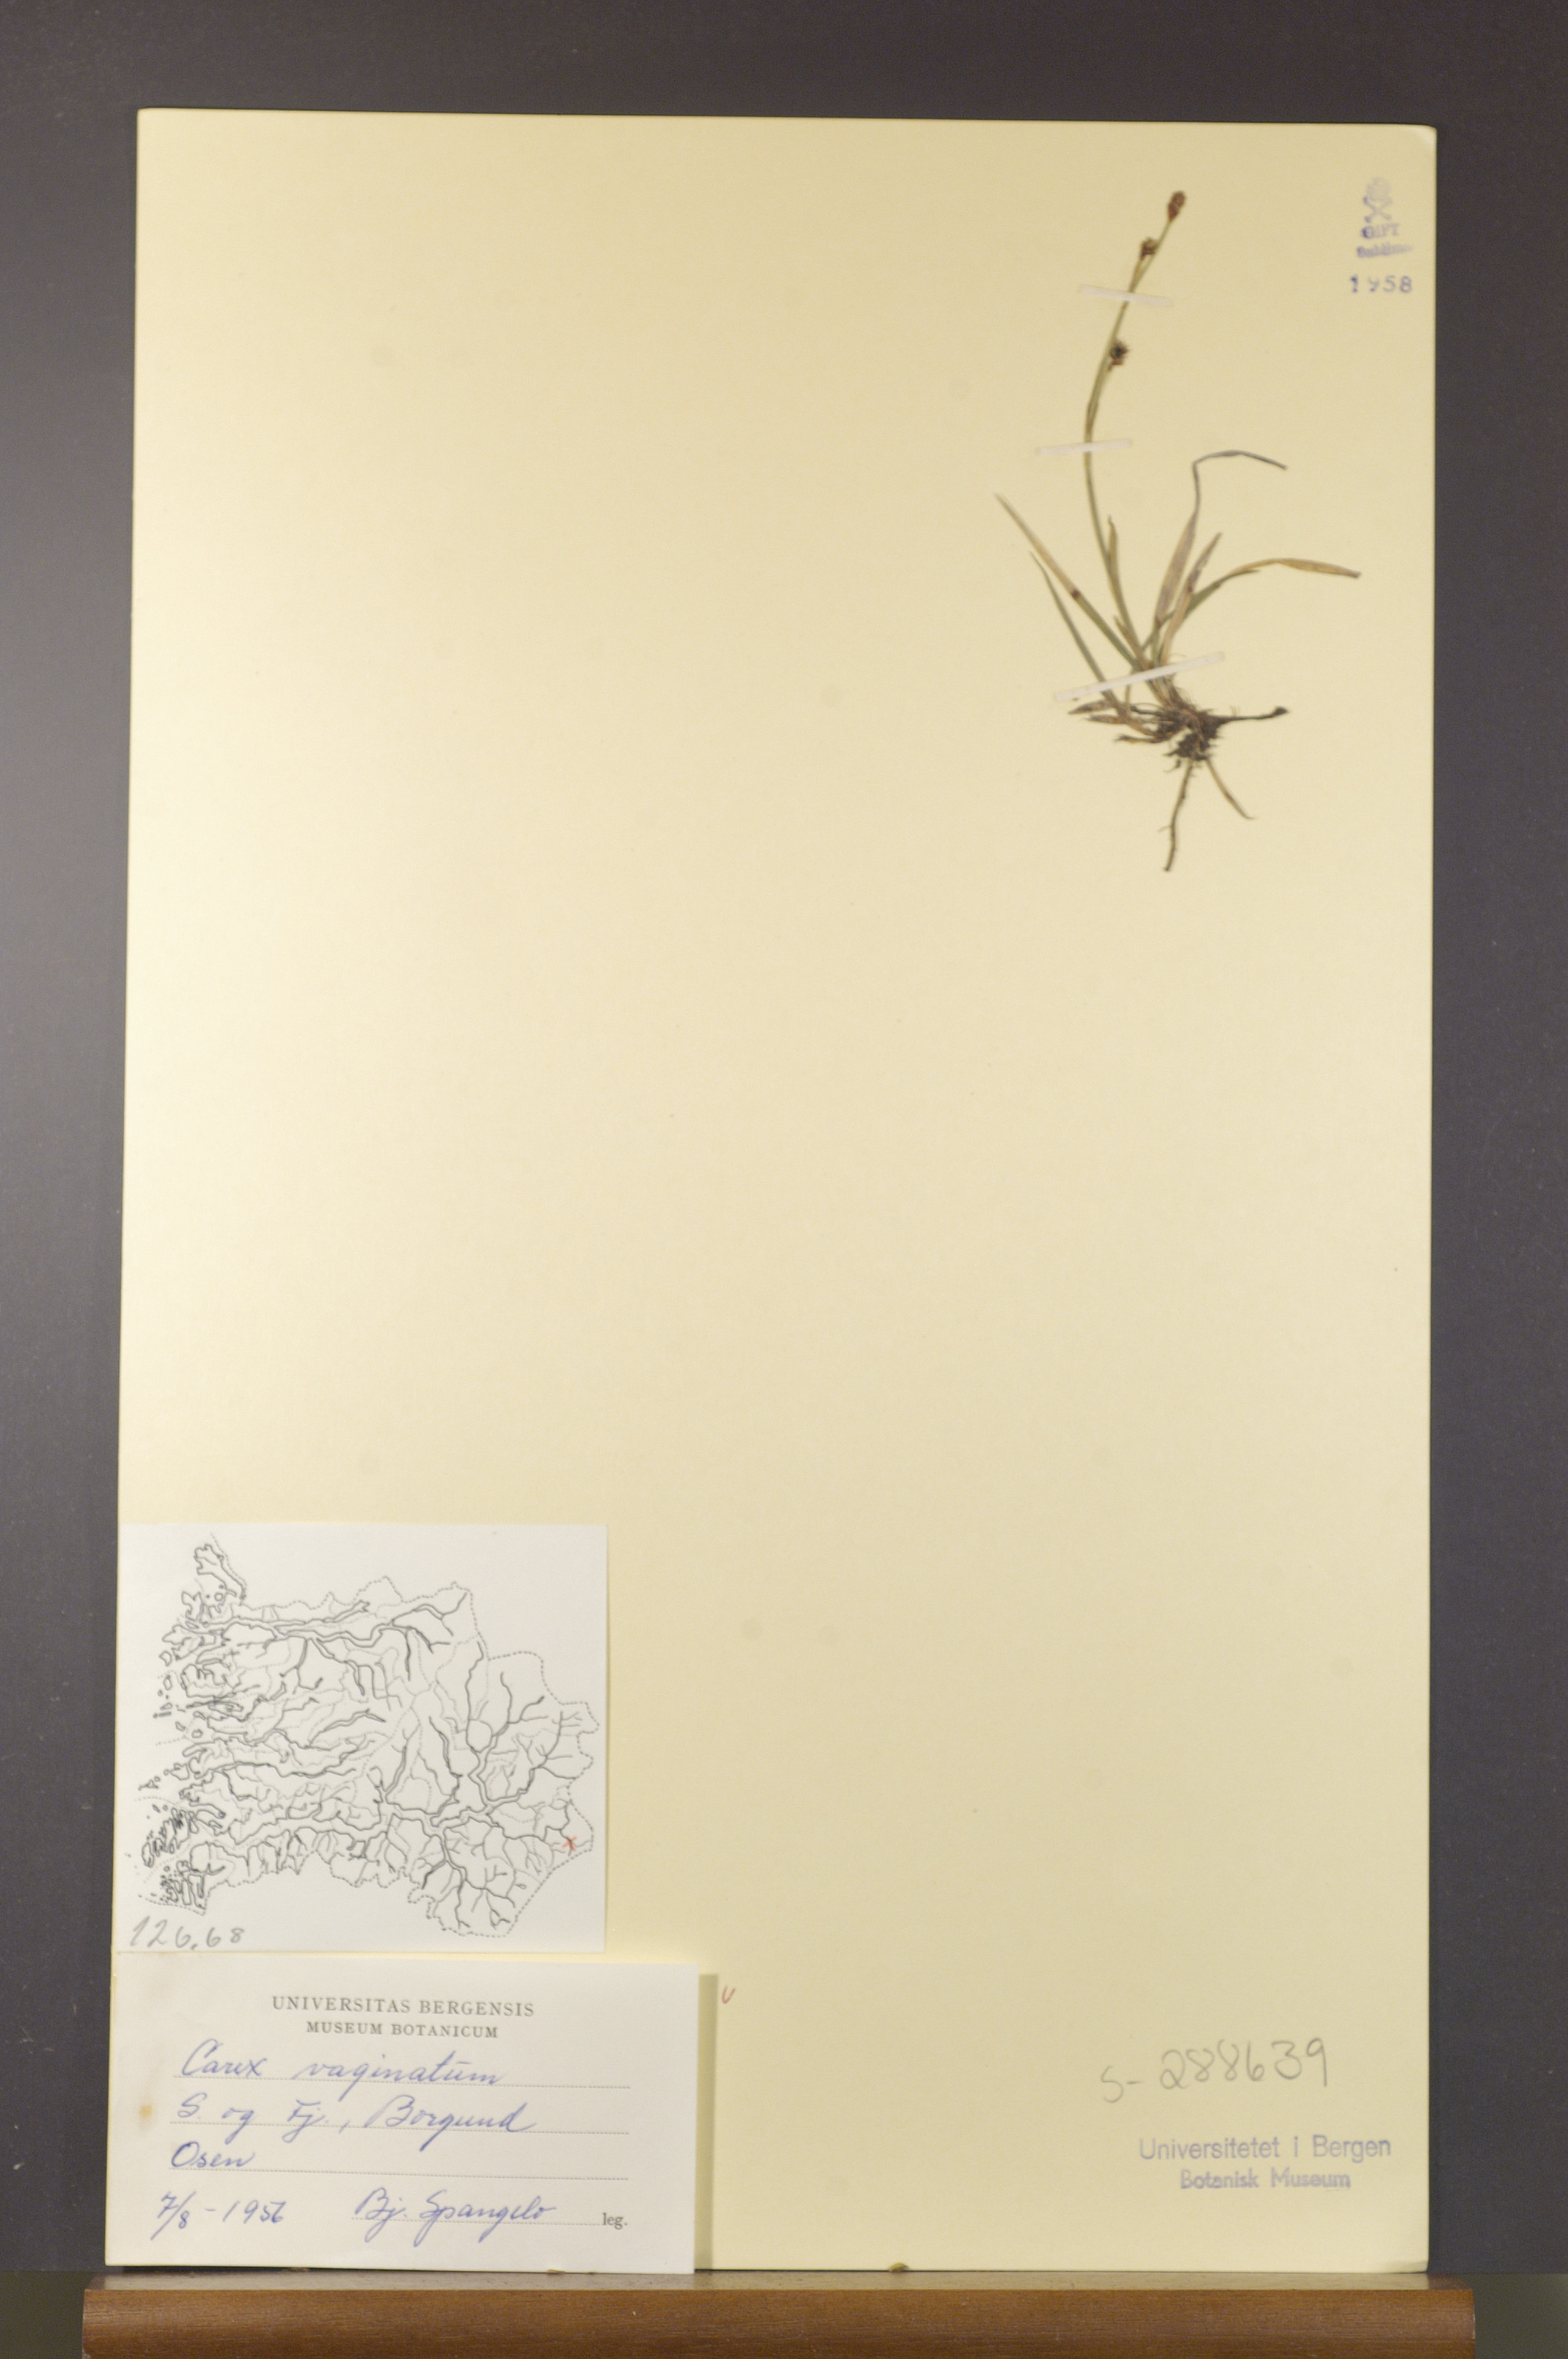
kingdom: Plantae
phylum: Tracheophyta
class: Liliopsida
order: Poales
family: Cyperaceae
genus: Carex
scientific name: Carex vaginata
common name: Sheathed sedge
